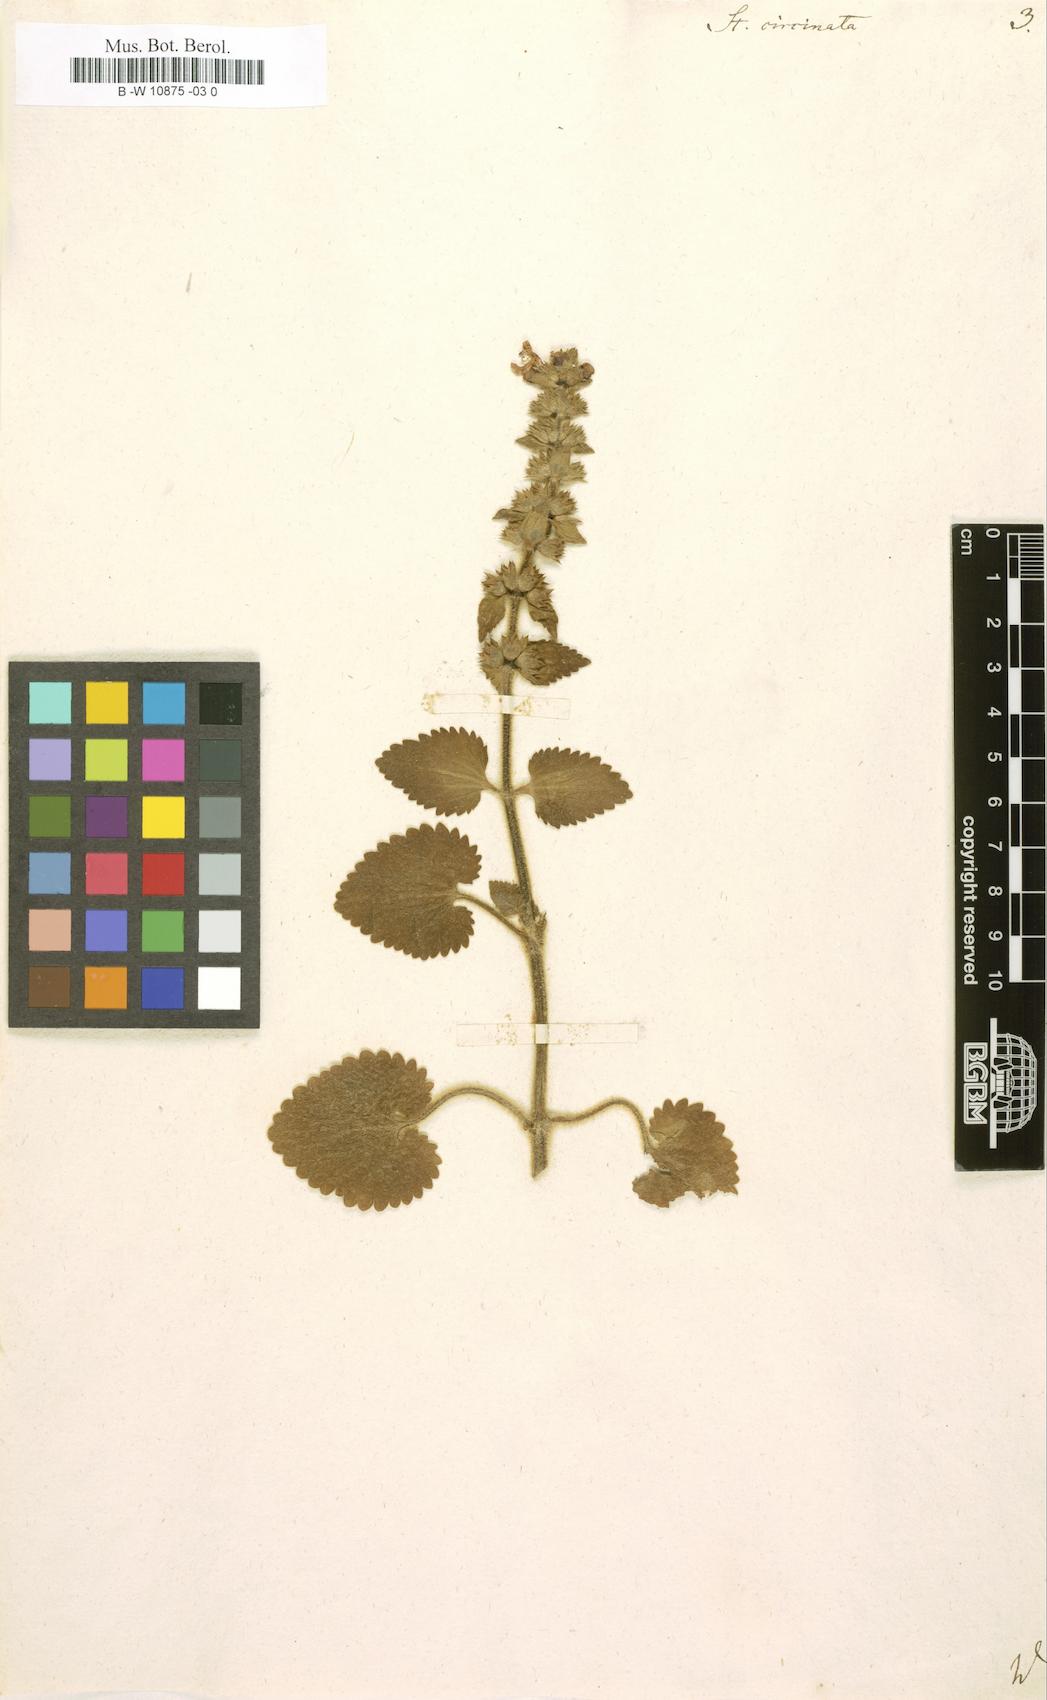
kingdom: Plantae
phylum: Tracheophyta
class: Magnoliopsida
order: Lamiales
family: Lamiaceae
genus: Stachys
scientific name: Stachys circinata
